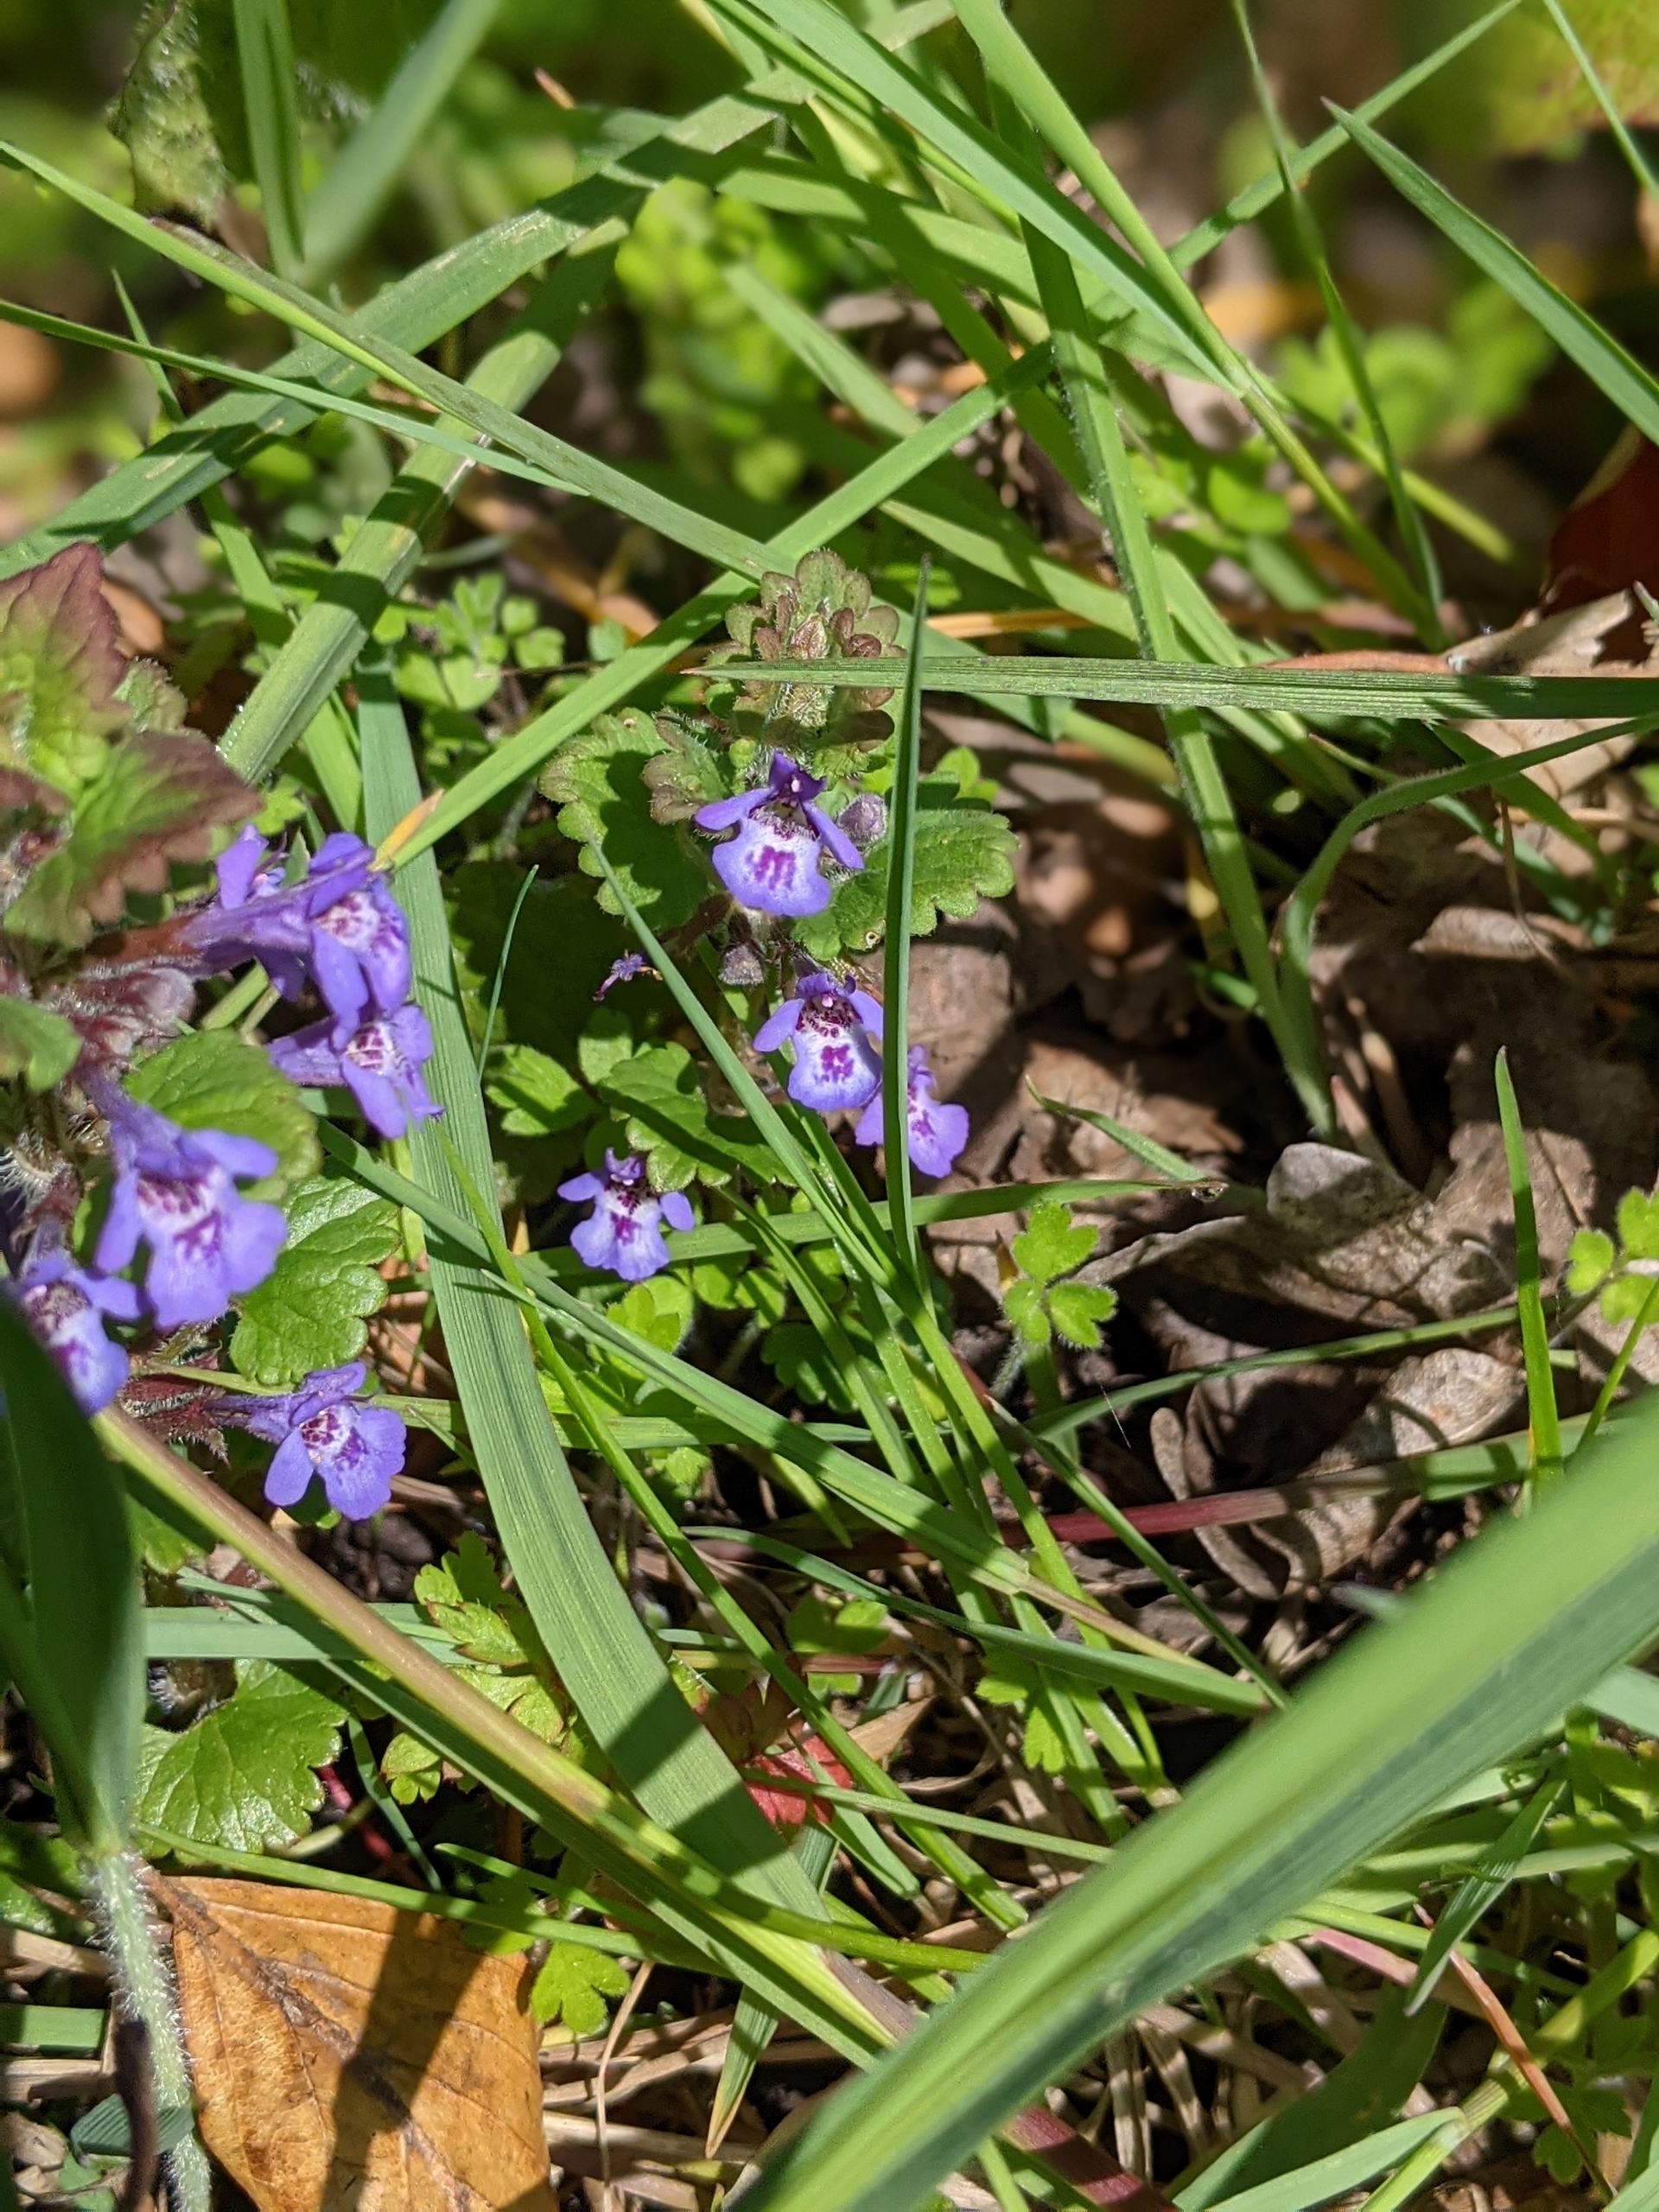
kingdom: Plantae
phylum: Tracheophyta
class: Magnoliopsida
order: Lamiales
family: Lamiaceae
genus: Glechoma
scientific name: Glechoma hederacea
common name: Korsknap
